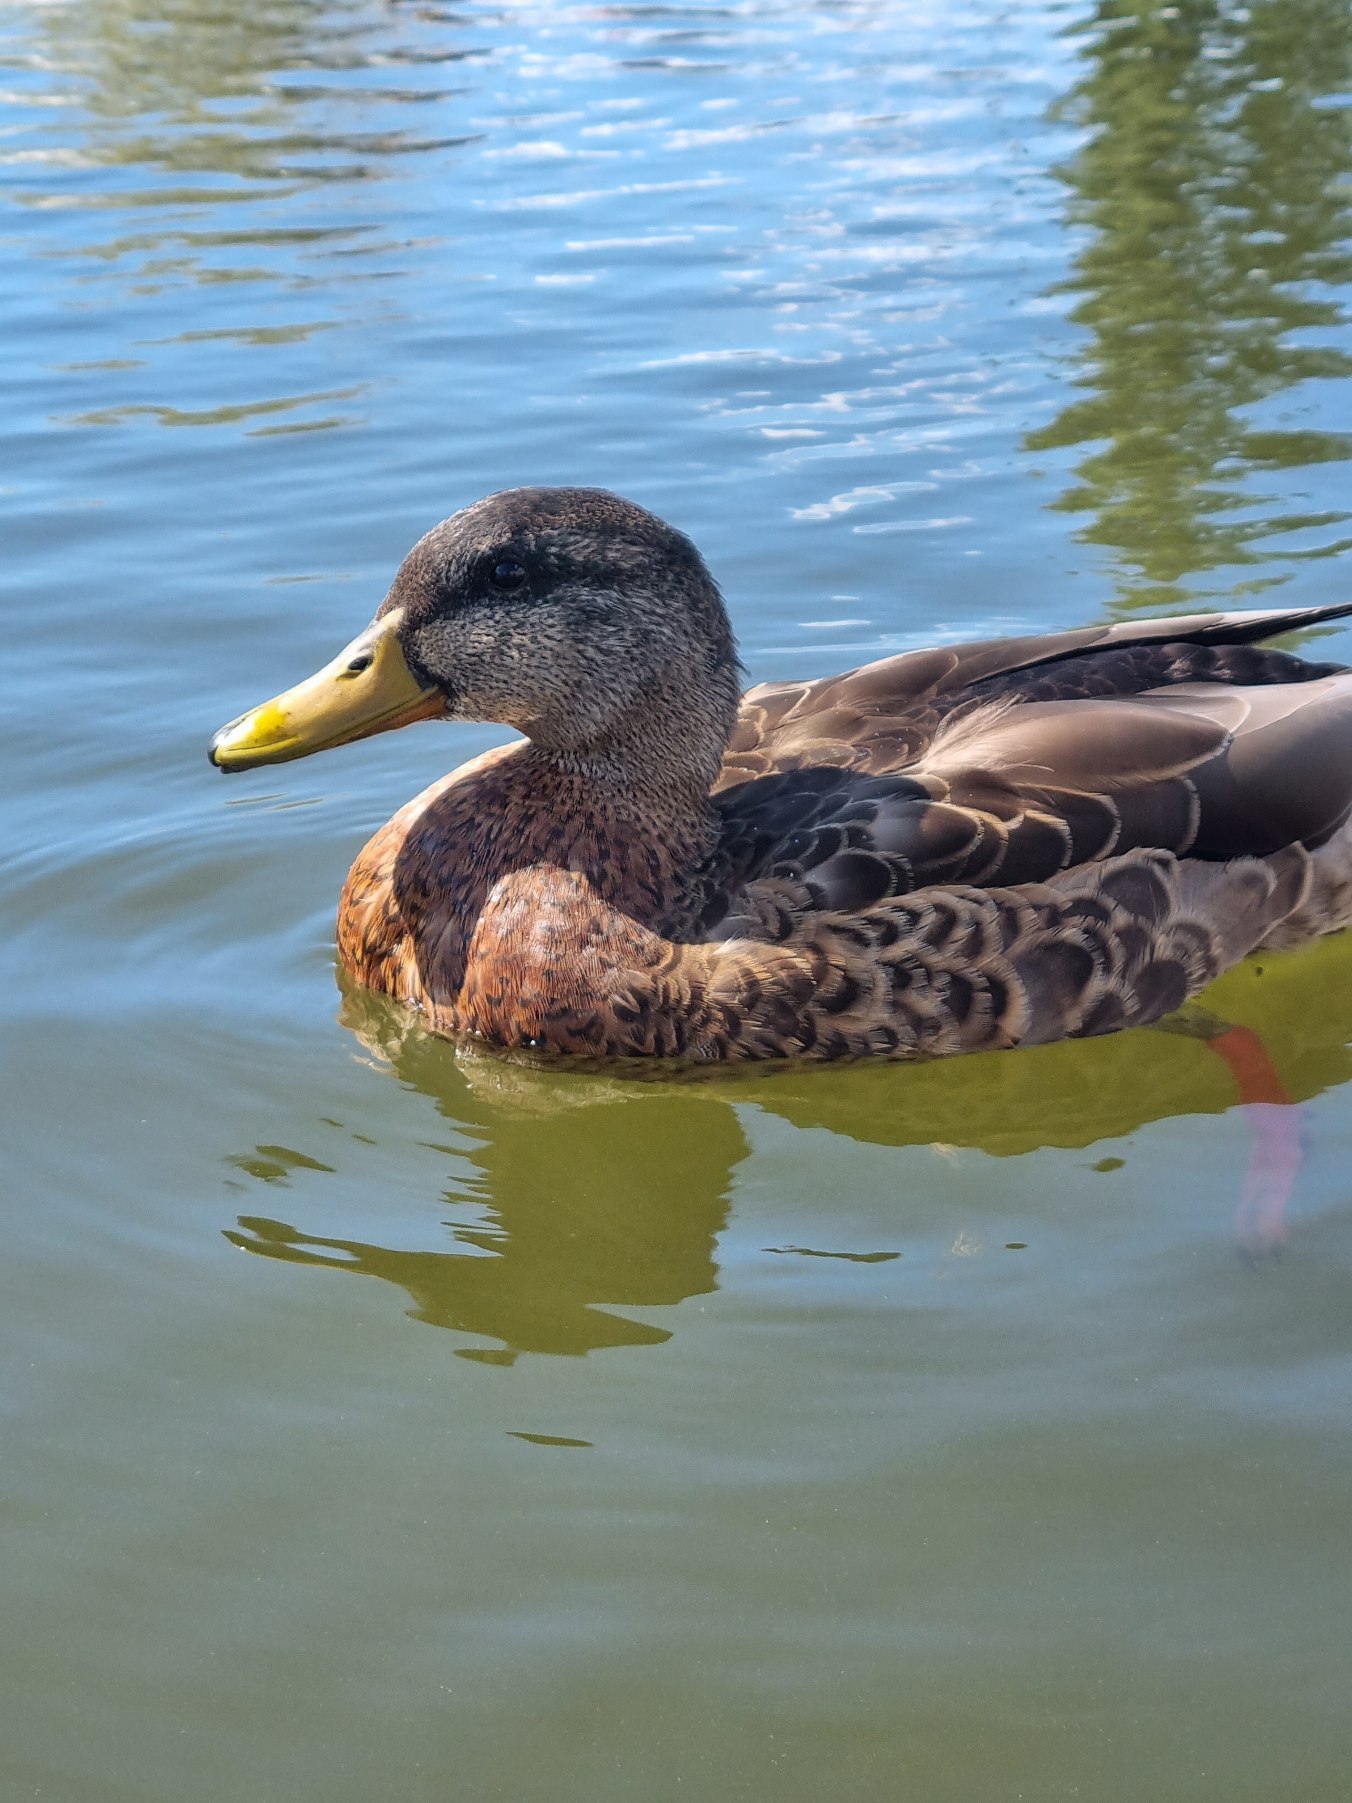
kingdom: Animalia
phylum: Chordata
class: Aves
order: Anseriformes
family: Anatidae
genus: Anas
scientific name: Anas platyrhynchos
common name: Gråand
